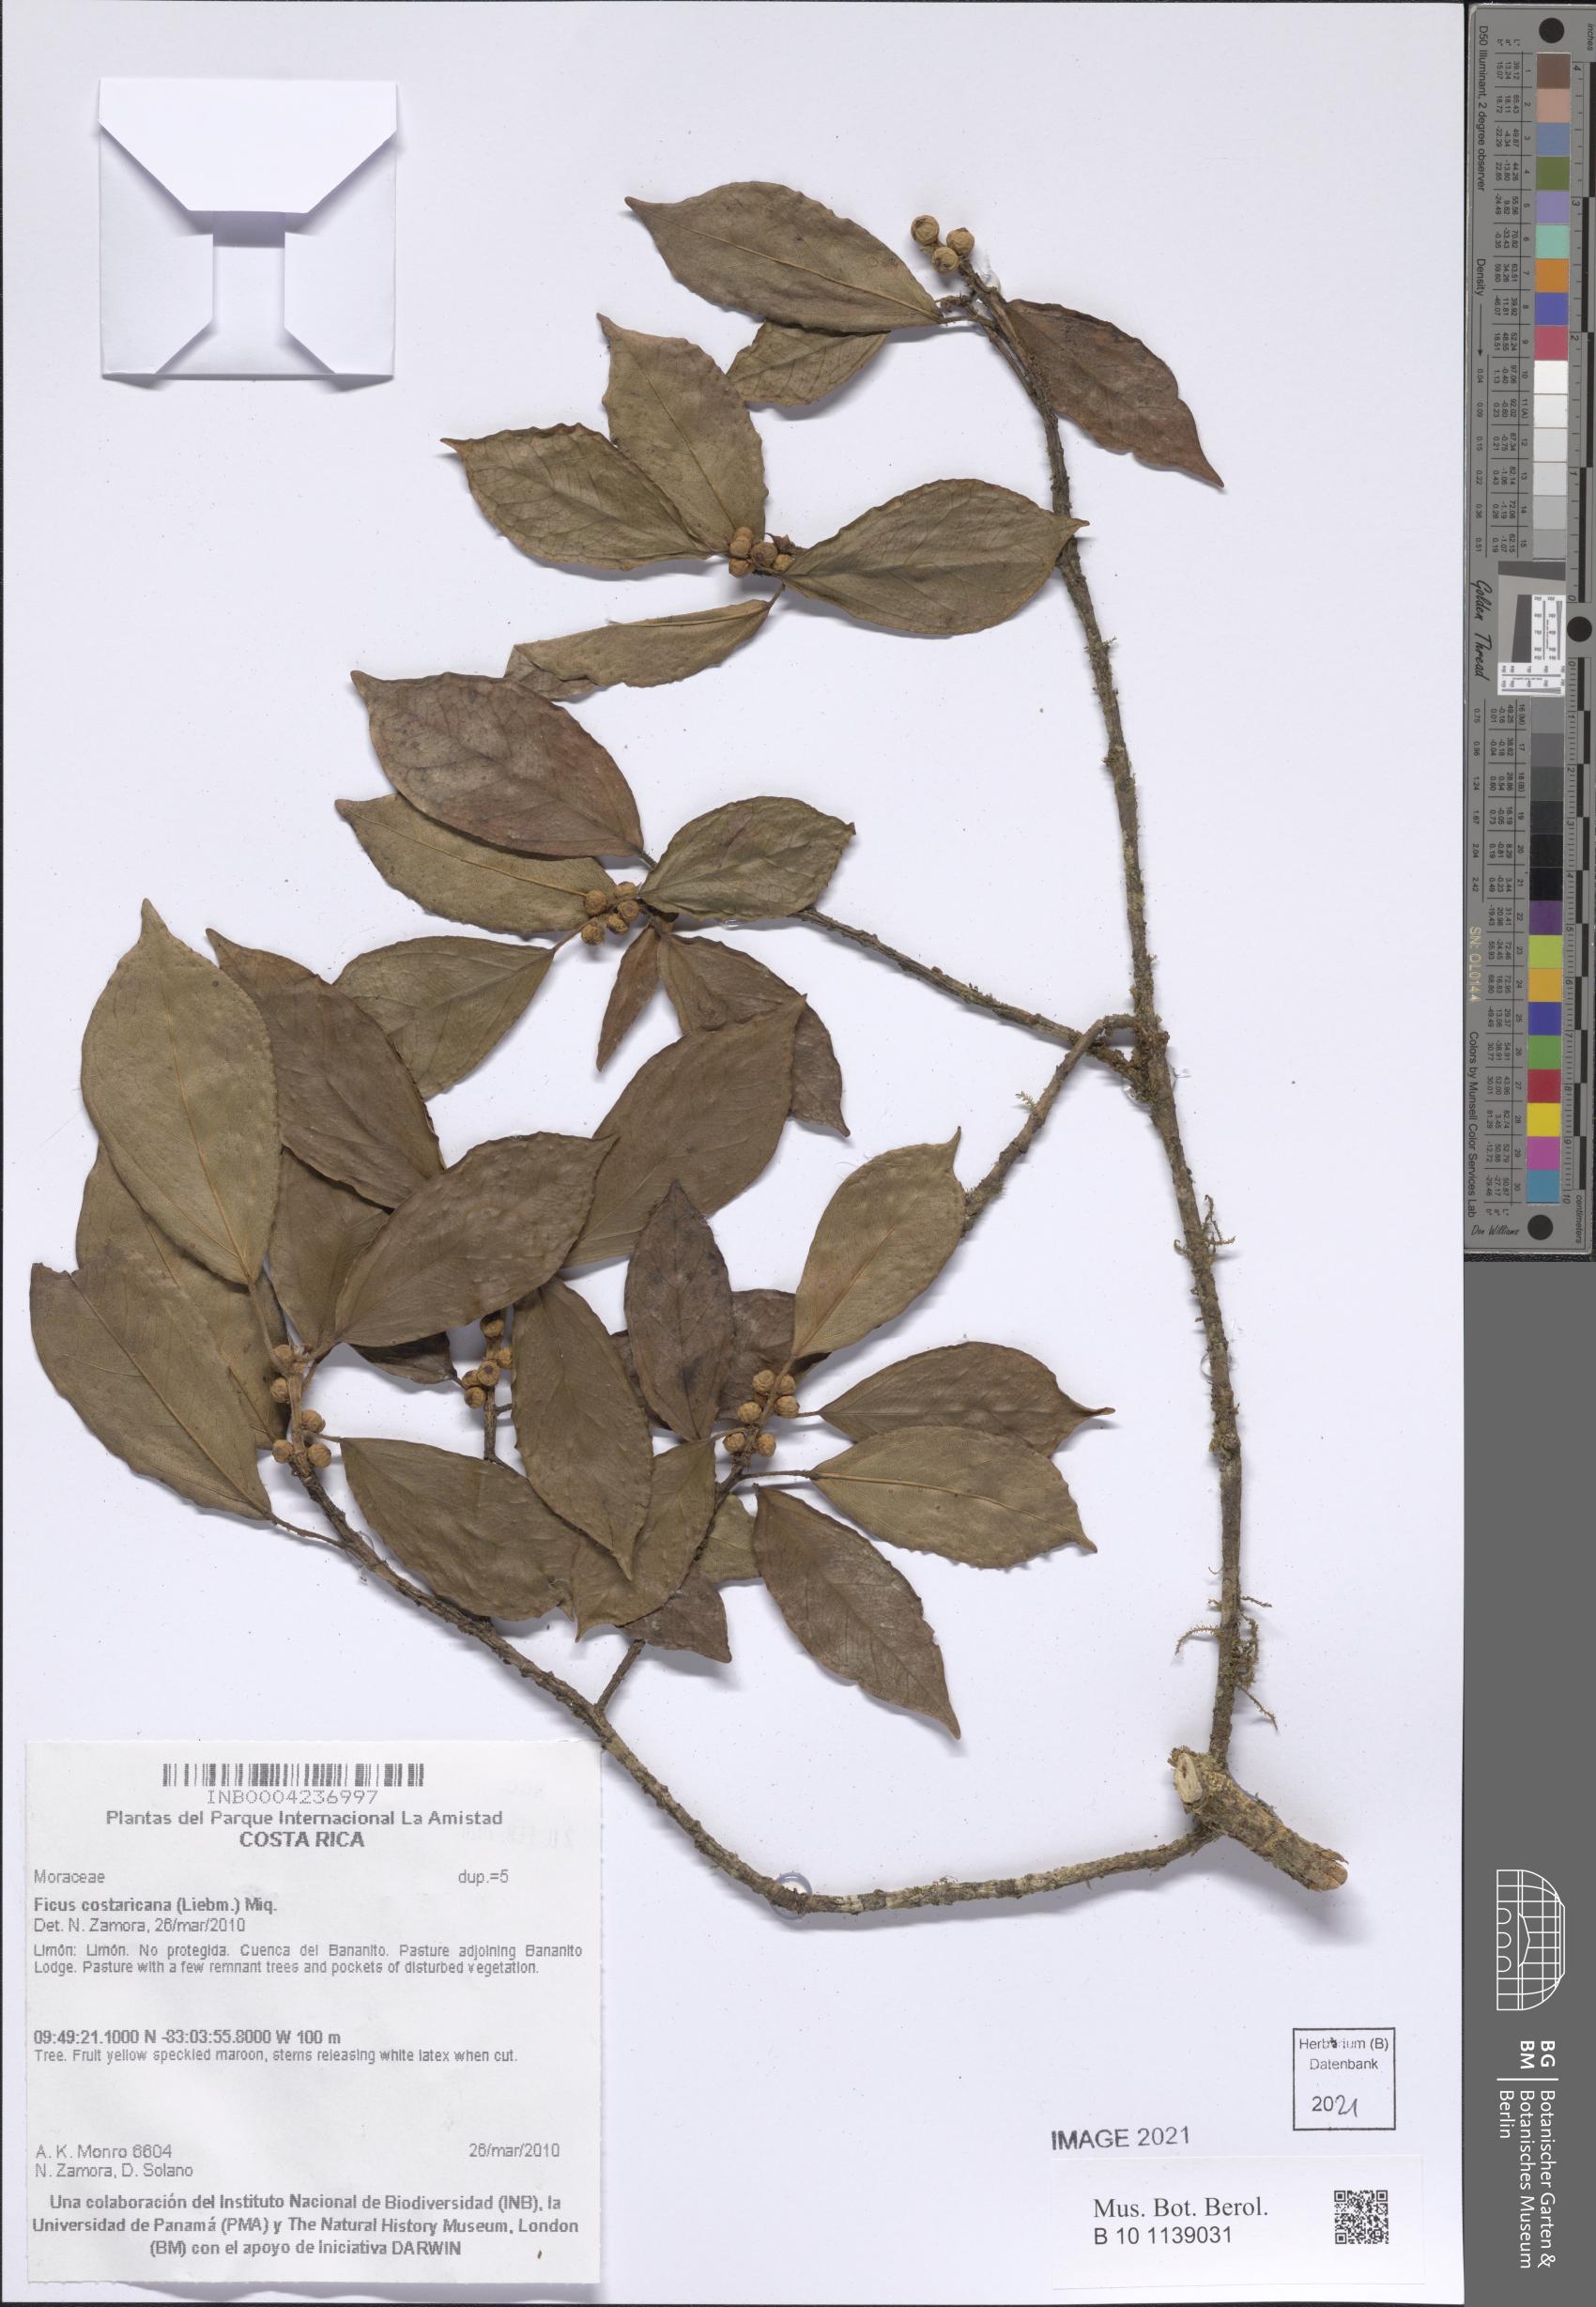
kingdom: Plantae
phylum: Tracheophyta
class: Magnoliopsida
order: Rosales
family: Moraceae
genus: Ficus
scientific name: Ficus colubrinae
